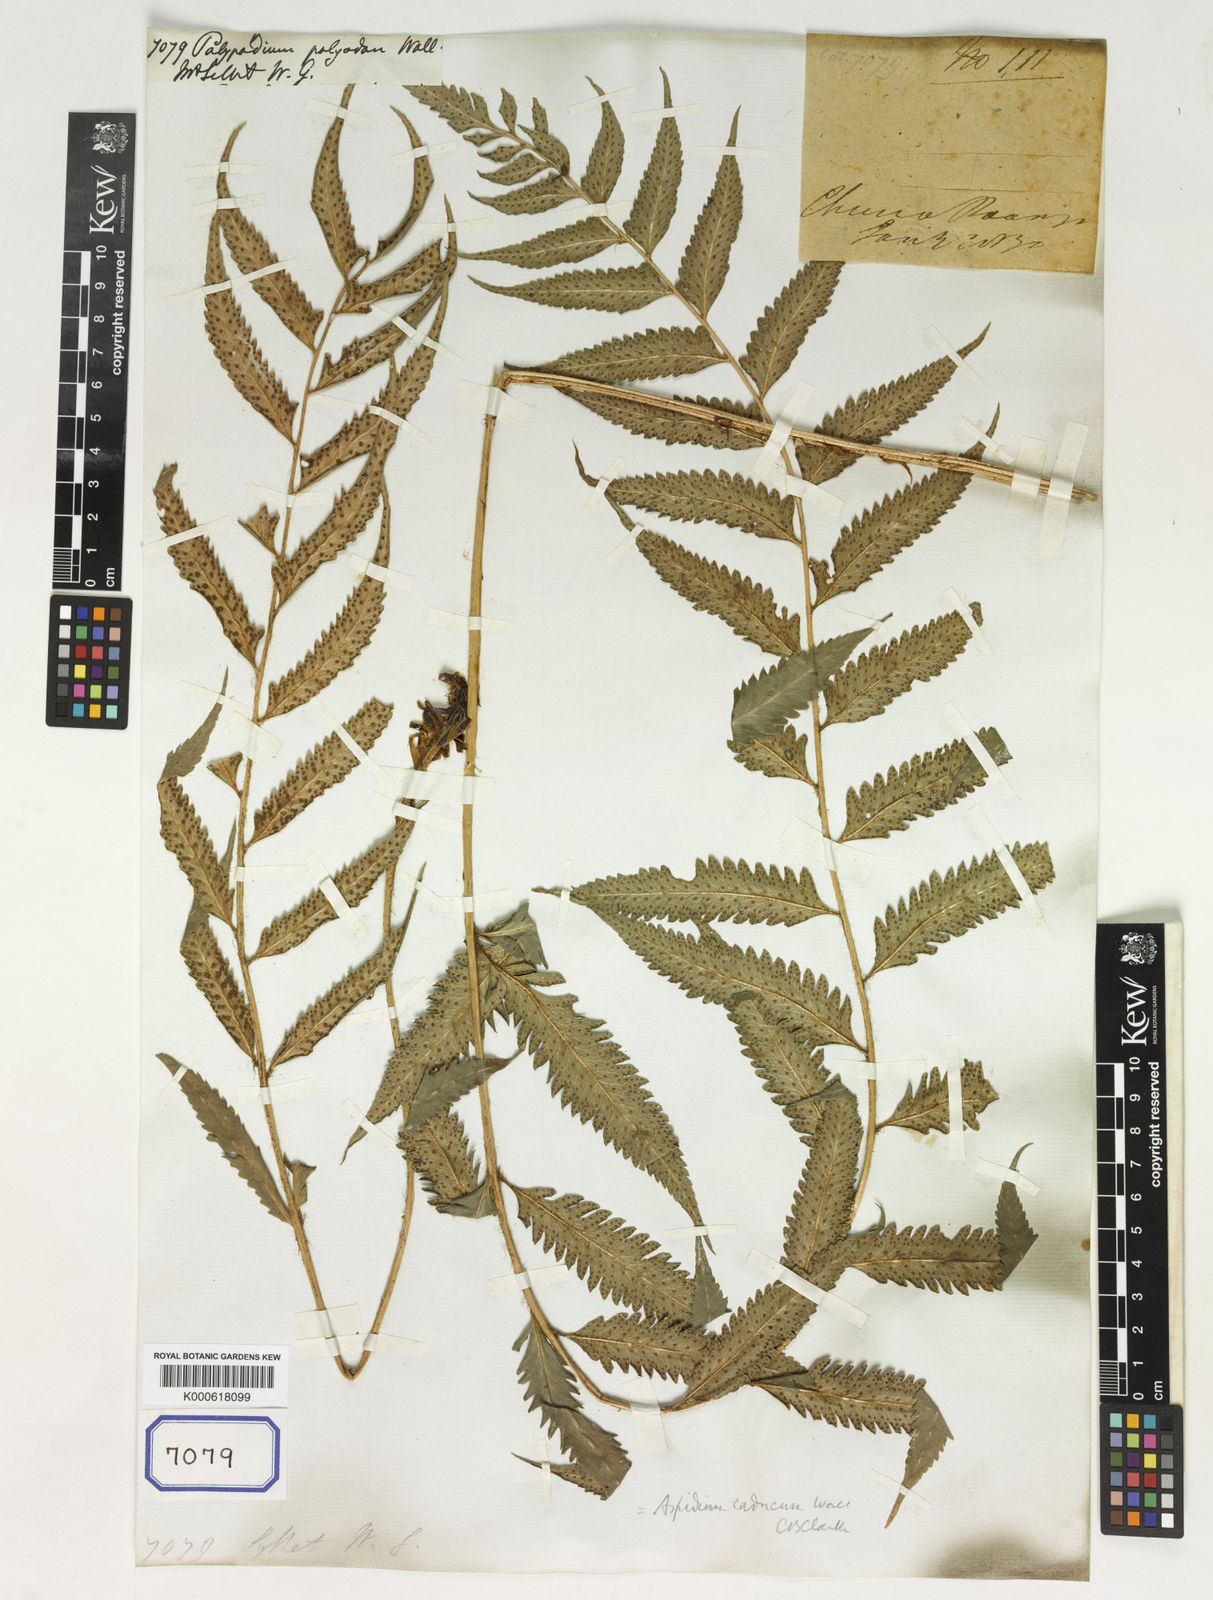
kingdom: Plantae
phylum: Tracheophyta
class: Polypodiopsida
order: Polypodiales
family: Dryopteridaceae
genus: Polystichum
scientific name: Polystichum polyodon
